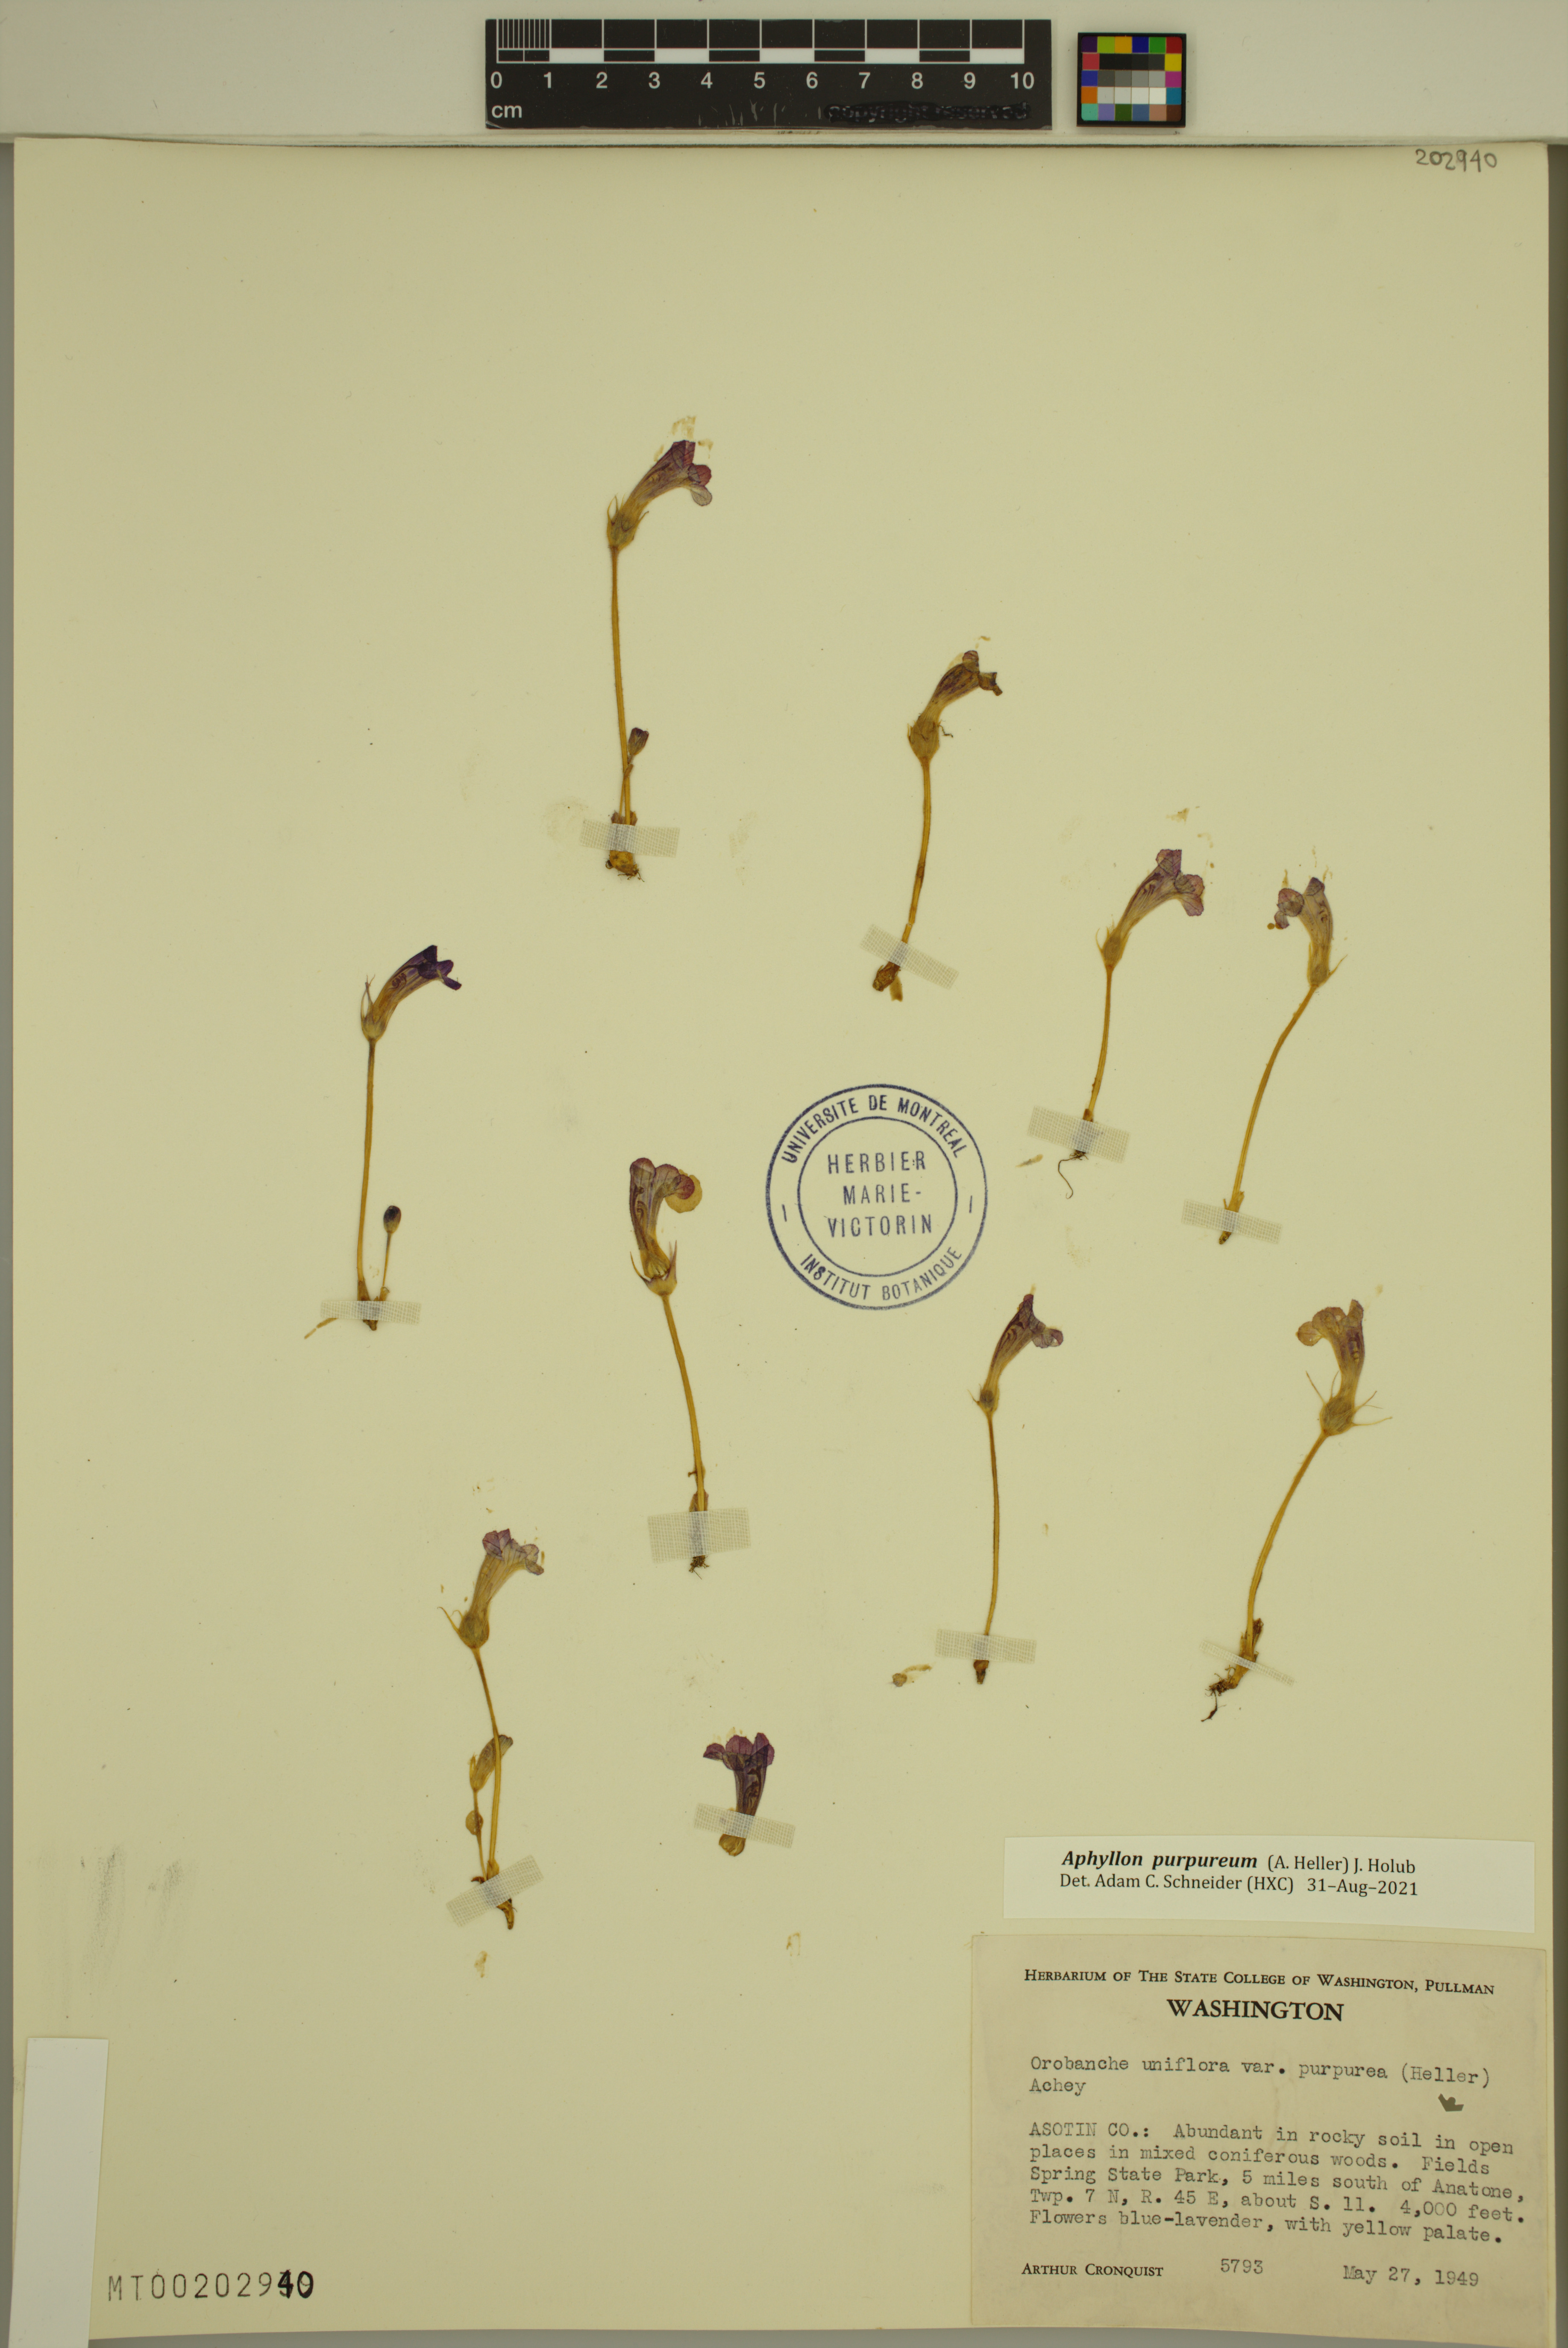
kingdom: Plantae
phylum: Tracheophyta
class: Magnoliopsida
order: Lamiales
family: Orobanchaceae
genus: Aphyllon
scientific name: Aphyllon uniflorum
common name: One-flowered broomrape
